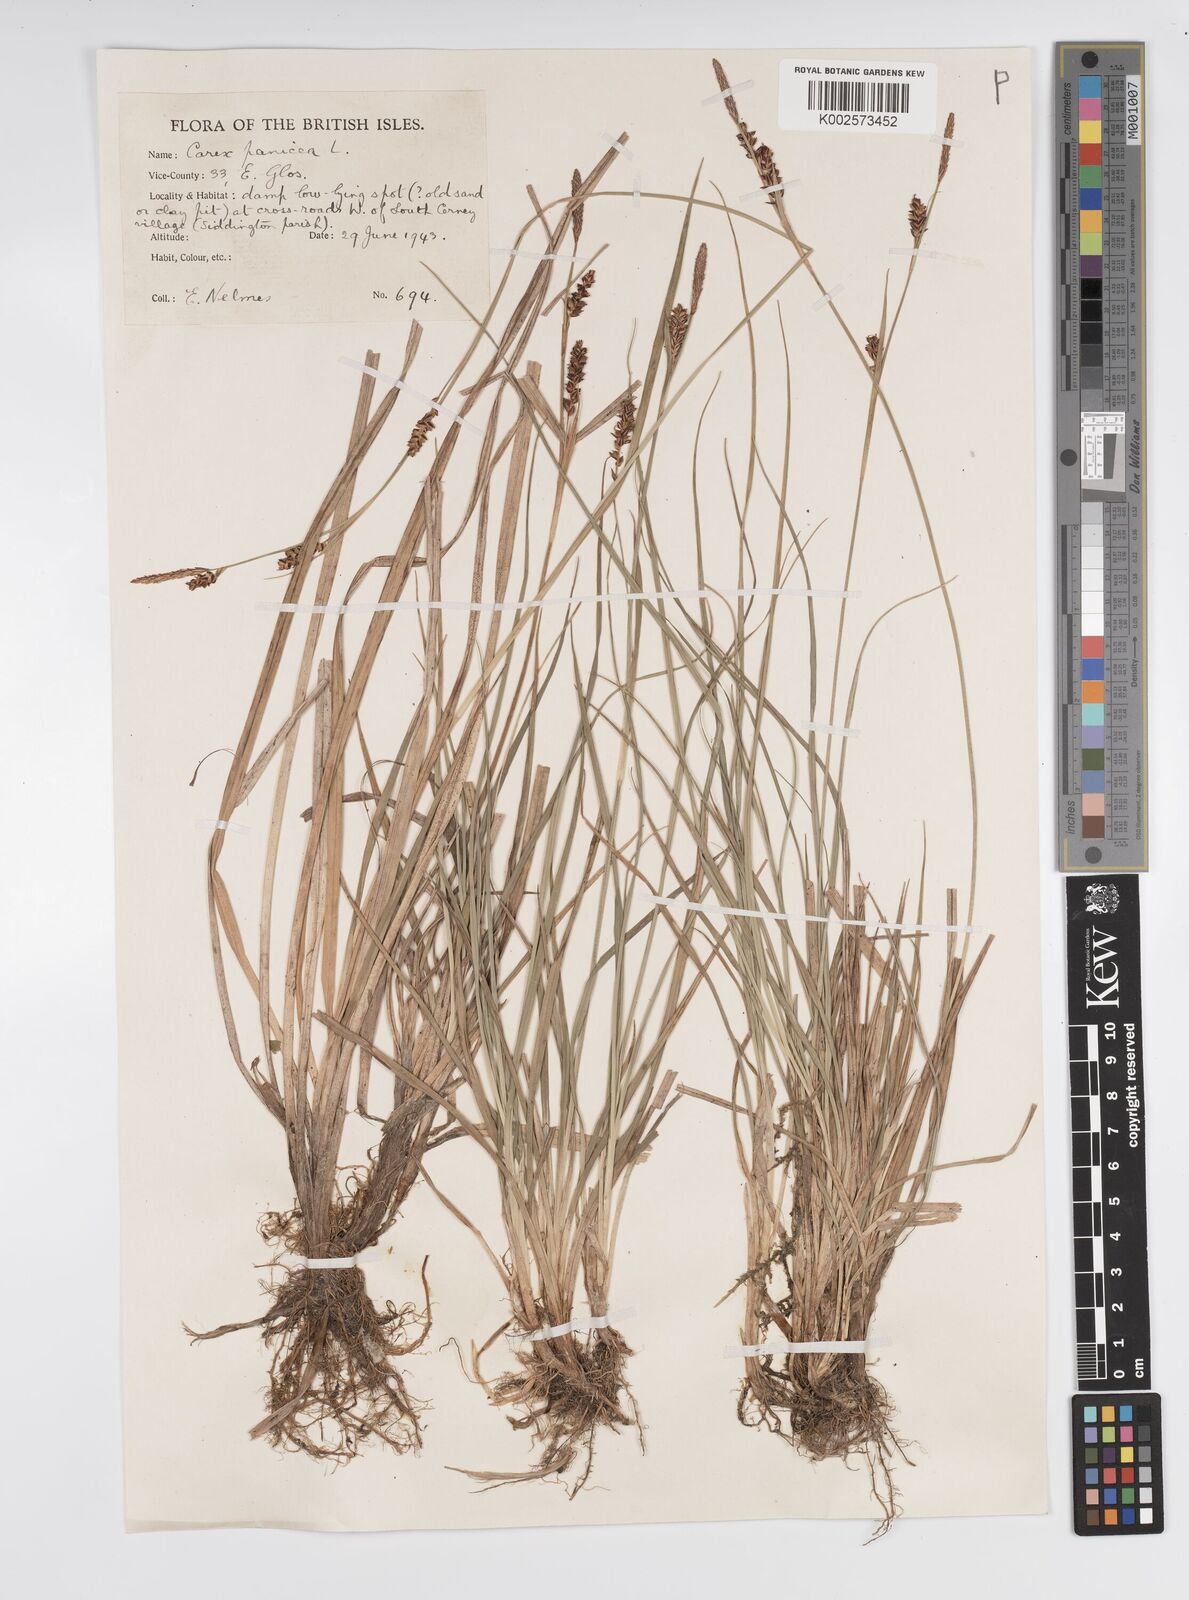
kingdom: Plantae
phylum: Tracheophyta
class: Liliopsida
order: Poales
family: Cyperaceae
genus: Carex
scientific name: Carex panicea
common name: Carnation sedge
